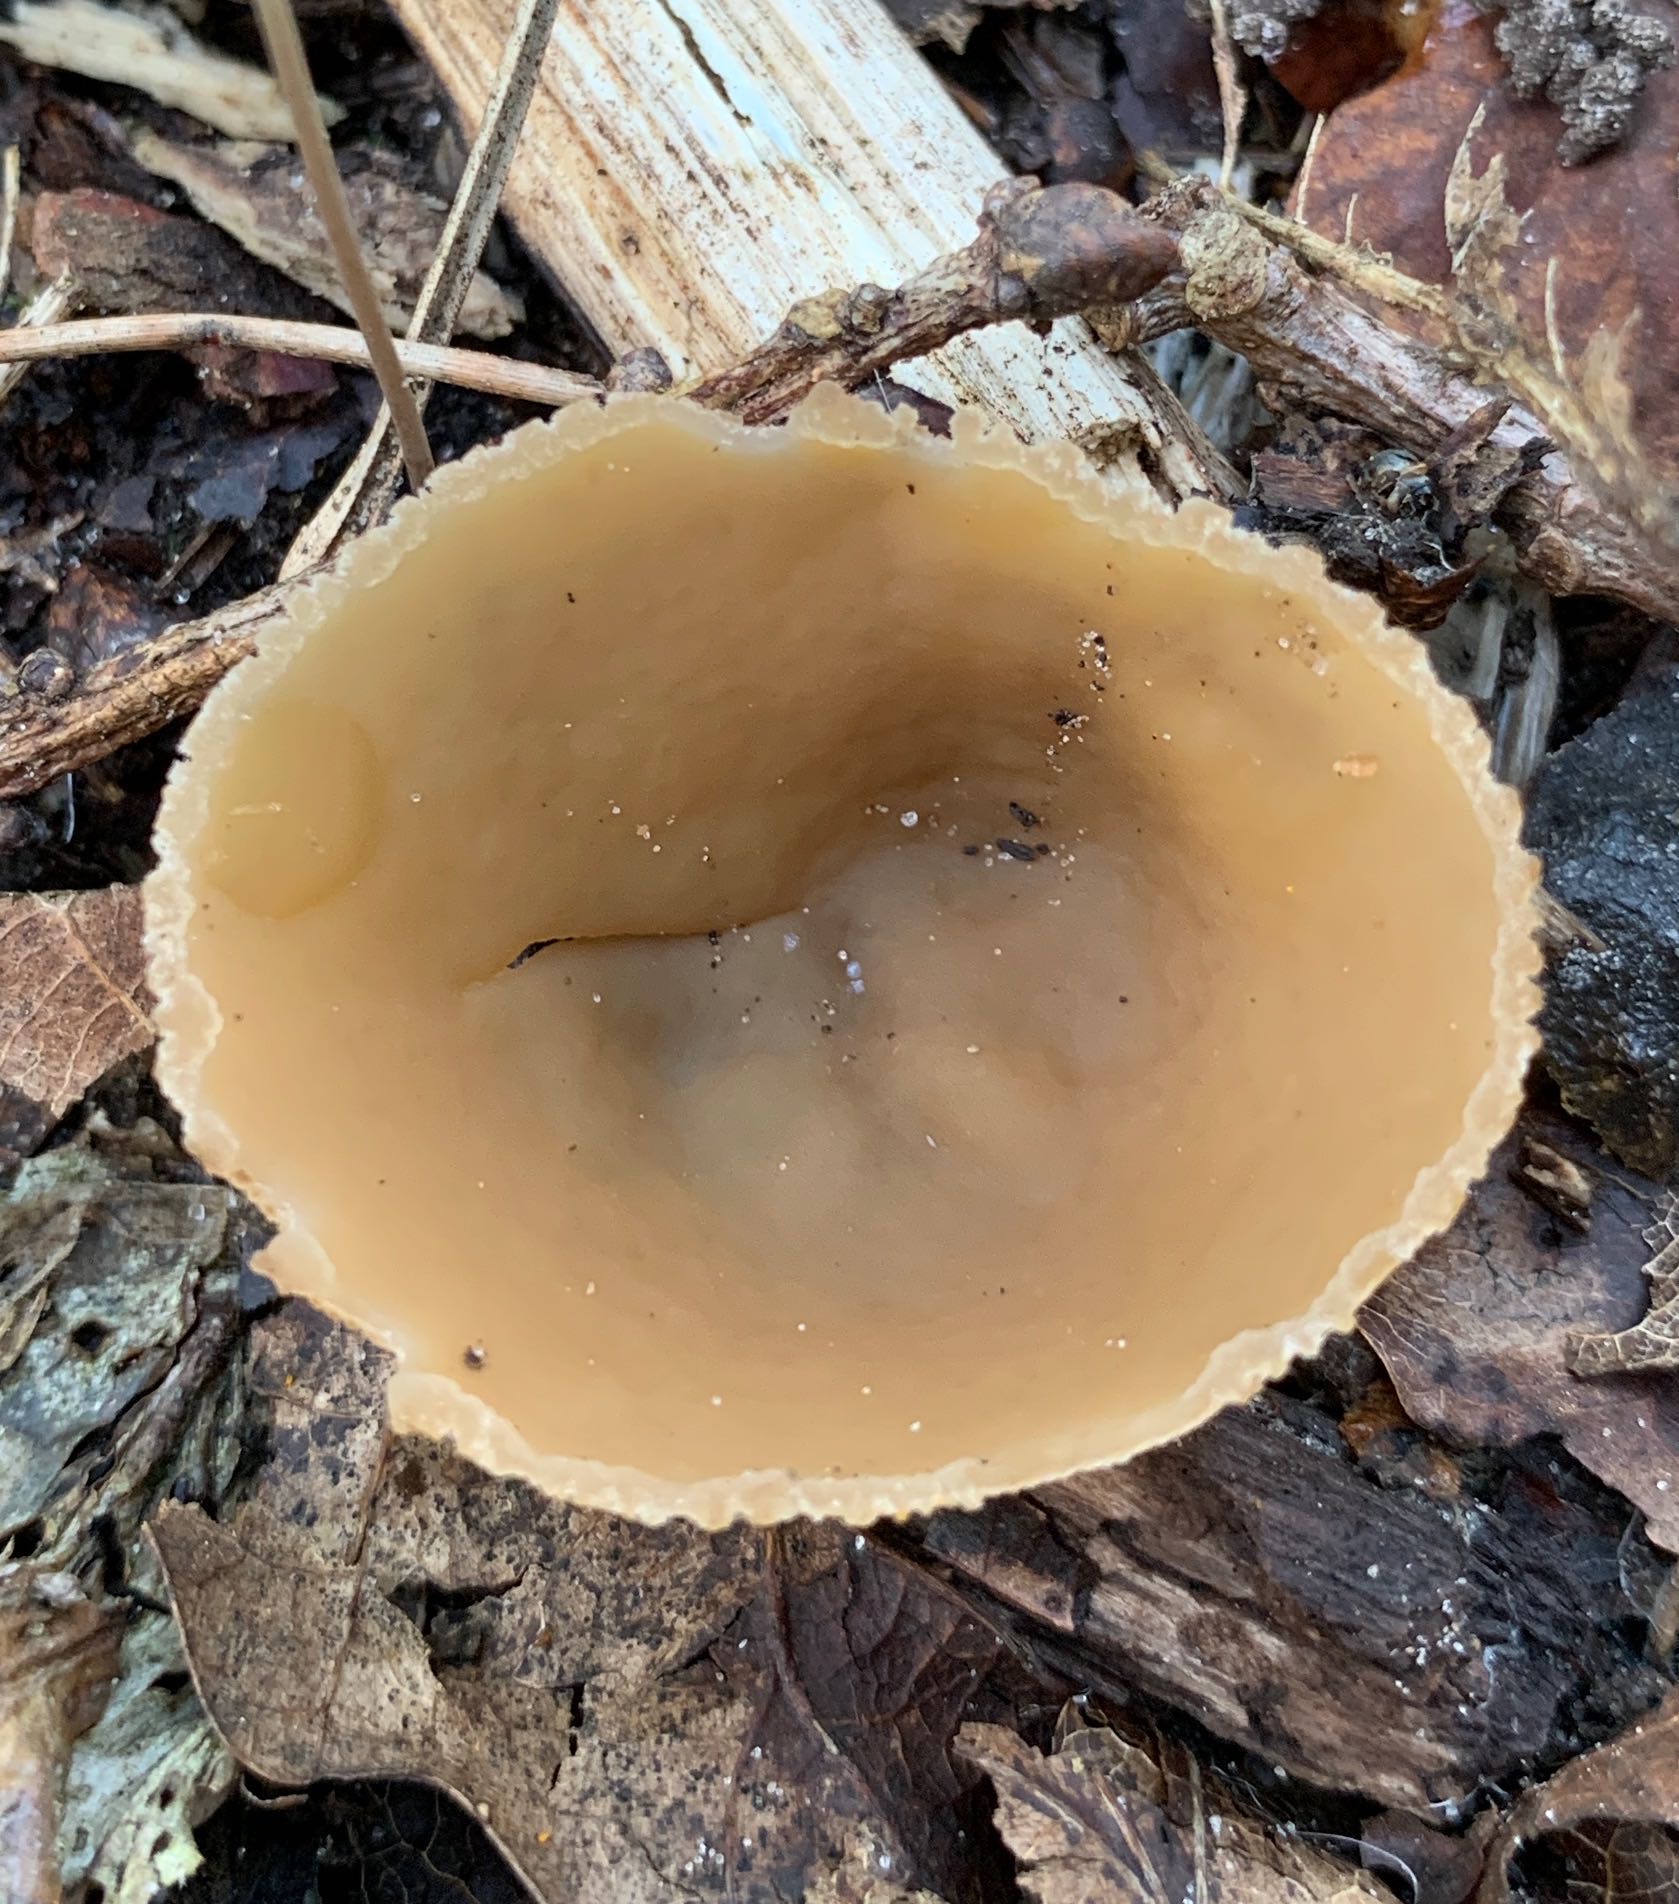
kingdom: Fungi
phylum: Ascomycota
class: Pezizomycetes
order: Pezizales
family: Pezizaceae
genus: Peziza
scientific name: Peziza
